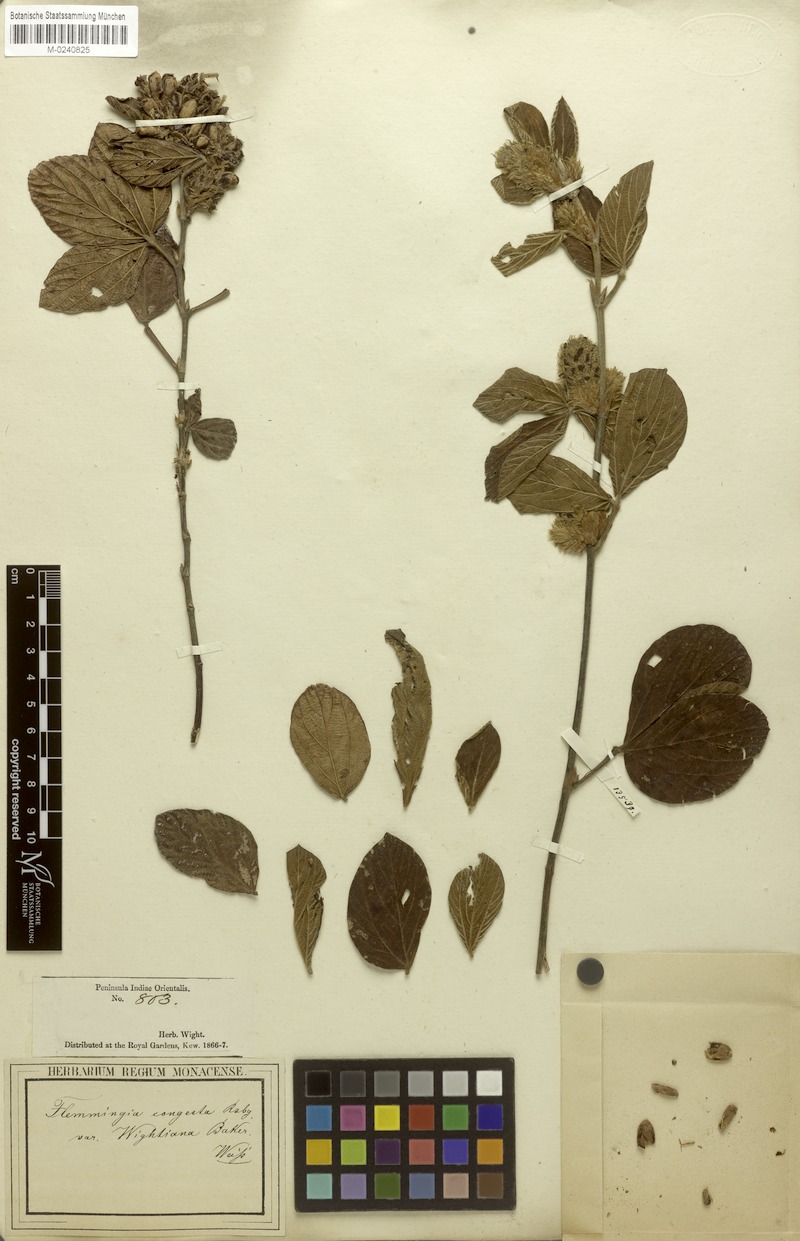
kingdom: Plantae
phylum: Tracheophyta
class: Magnoliopsida
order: Fabales
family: Fabaceae
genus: Flemingia
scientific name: Flemingia wightiana
